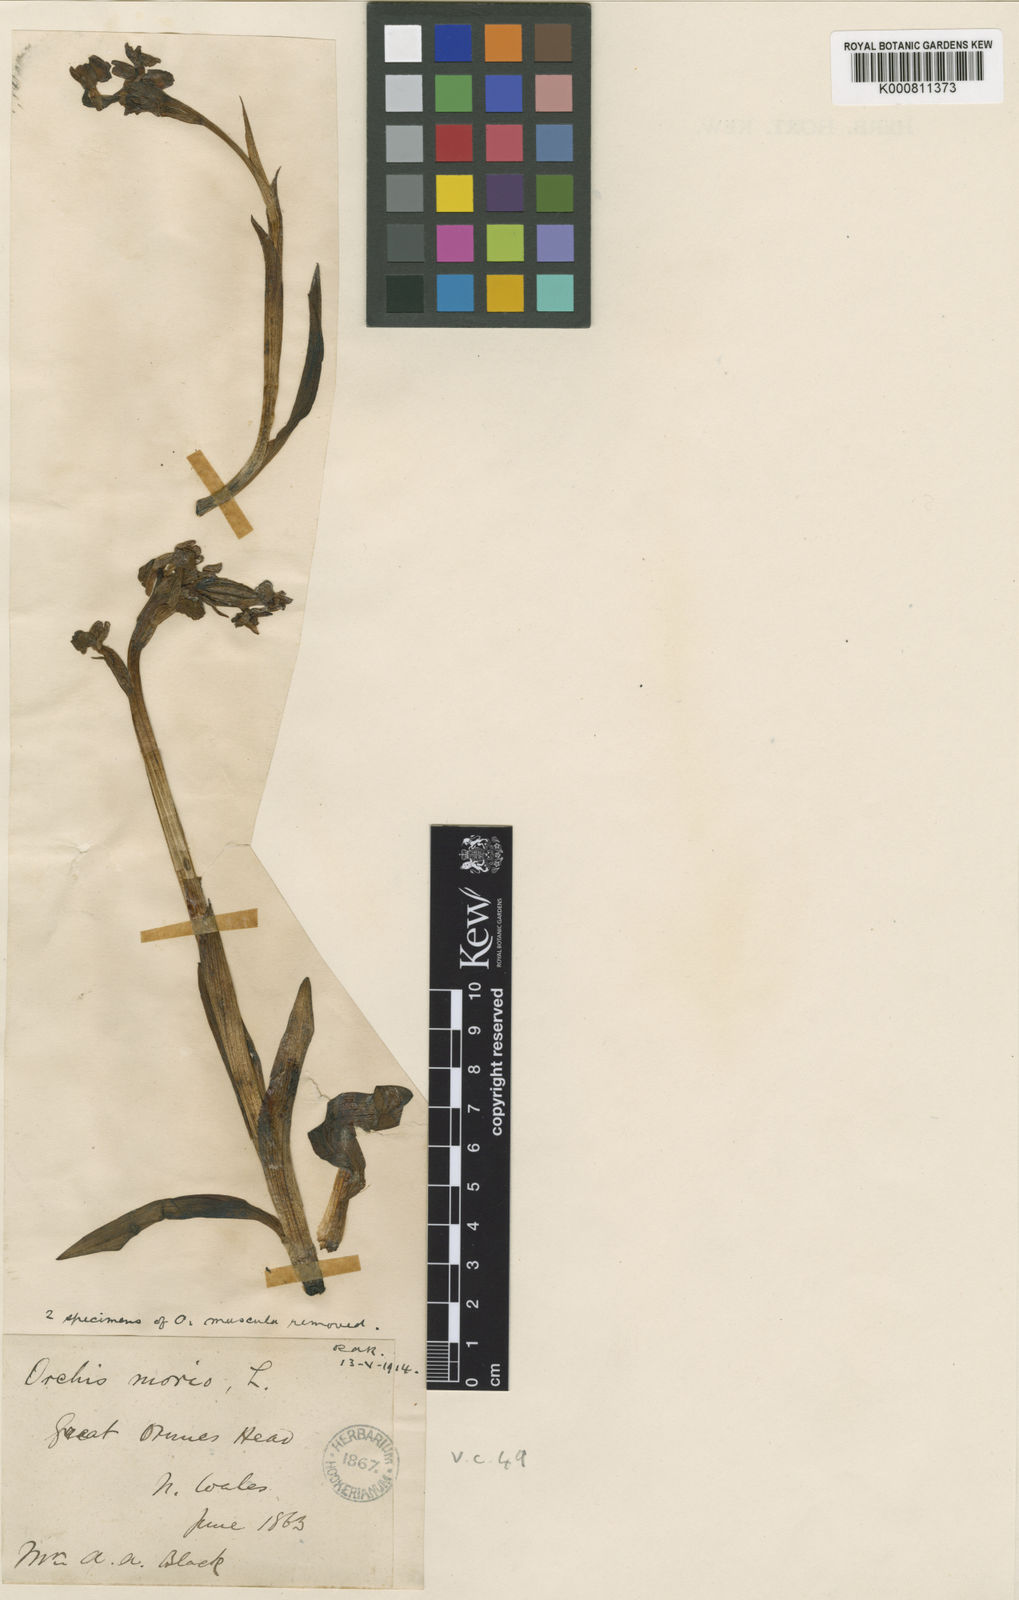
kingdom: Plantae
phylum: Tracheophyta
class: Liliopsida
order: Asparagales
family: Orchidaceae
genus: Anacamptis
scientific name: Anacamptis morio
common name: Green-winged orchid
